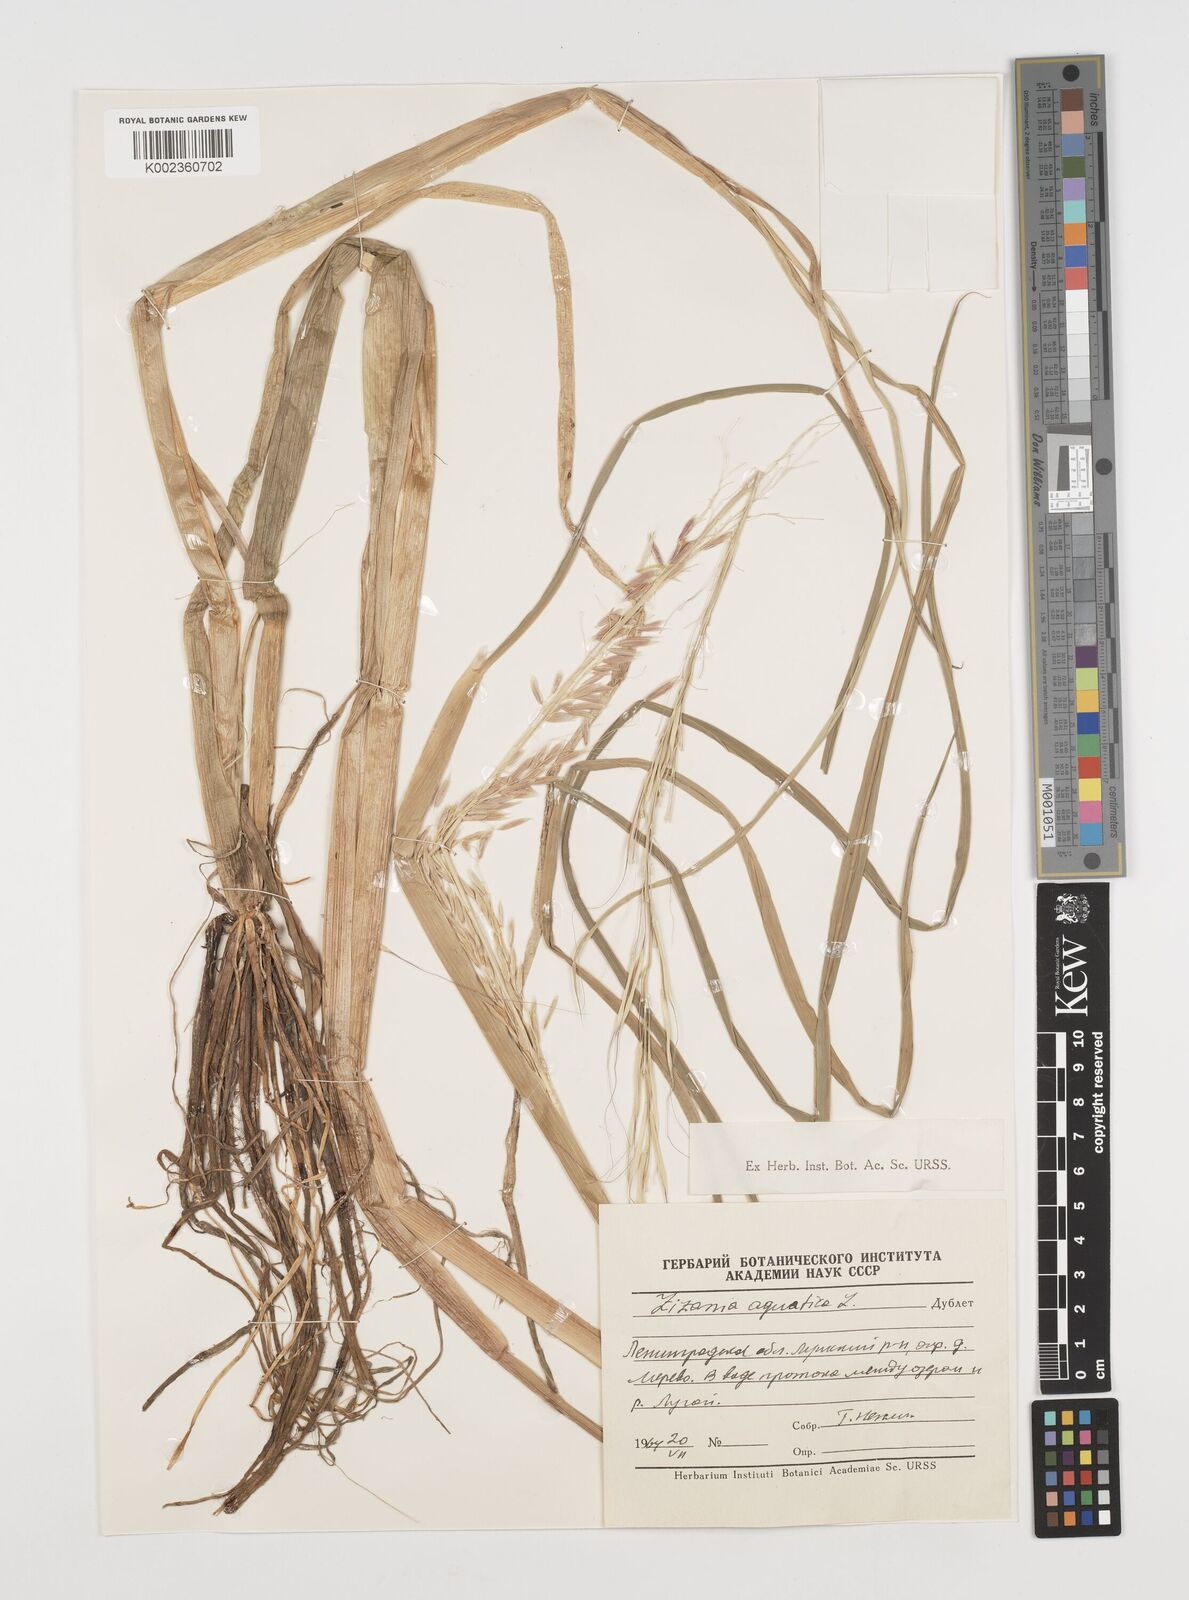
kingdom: Plantae
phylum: Tracheophyta
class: Liliopsida
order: Poales
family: Poaceae
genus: Zizania
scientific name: Zizania aquatica
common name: Annual wildrice
